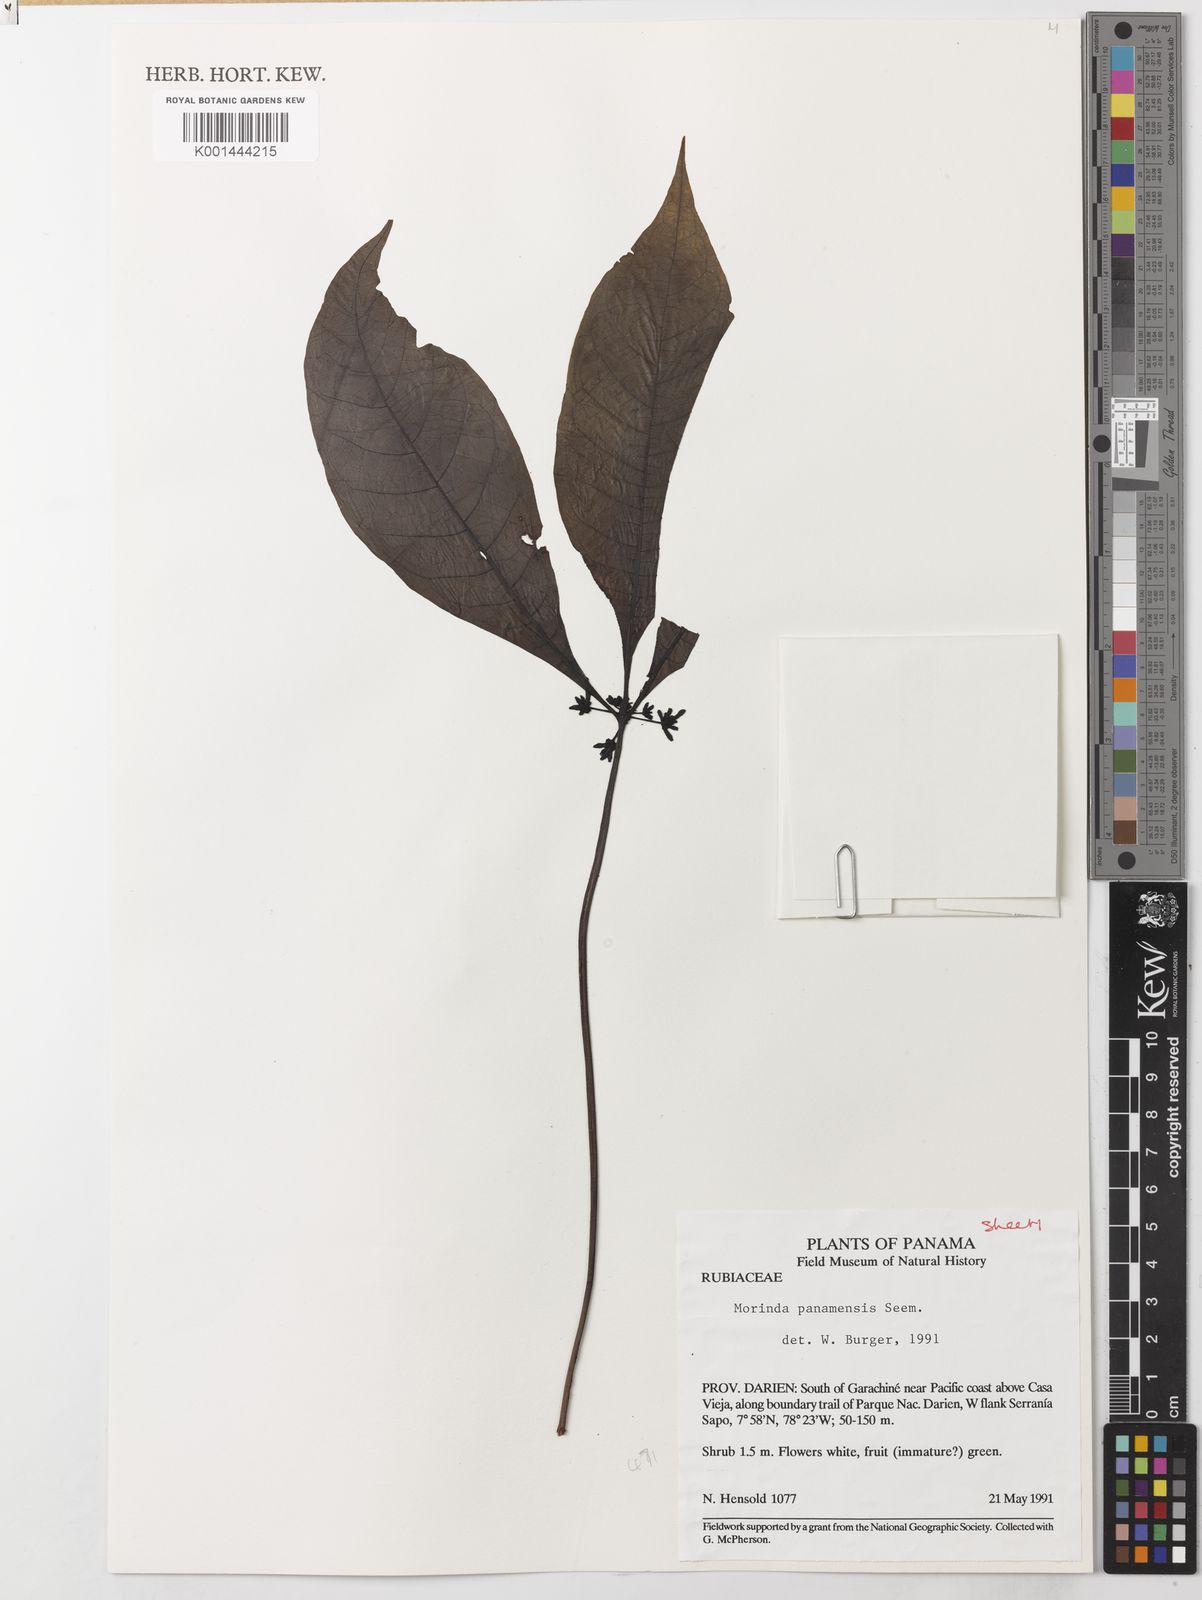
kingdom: Plantae
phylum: Tracheophyta
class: Magnoliopsida
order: Gentianales
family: Rubiaceae
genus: Morinda
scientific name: Morinda panamensis
